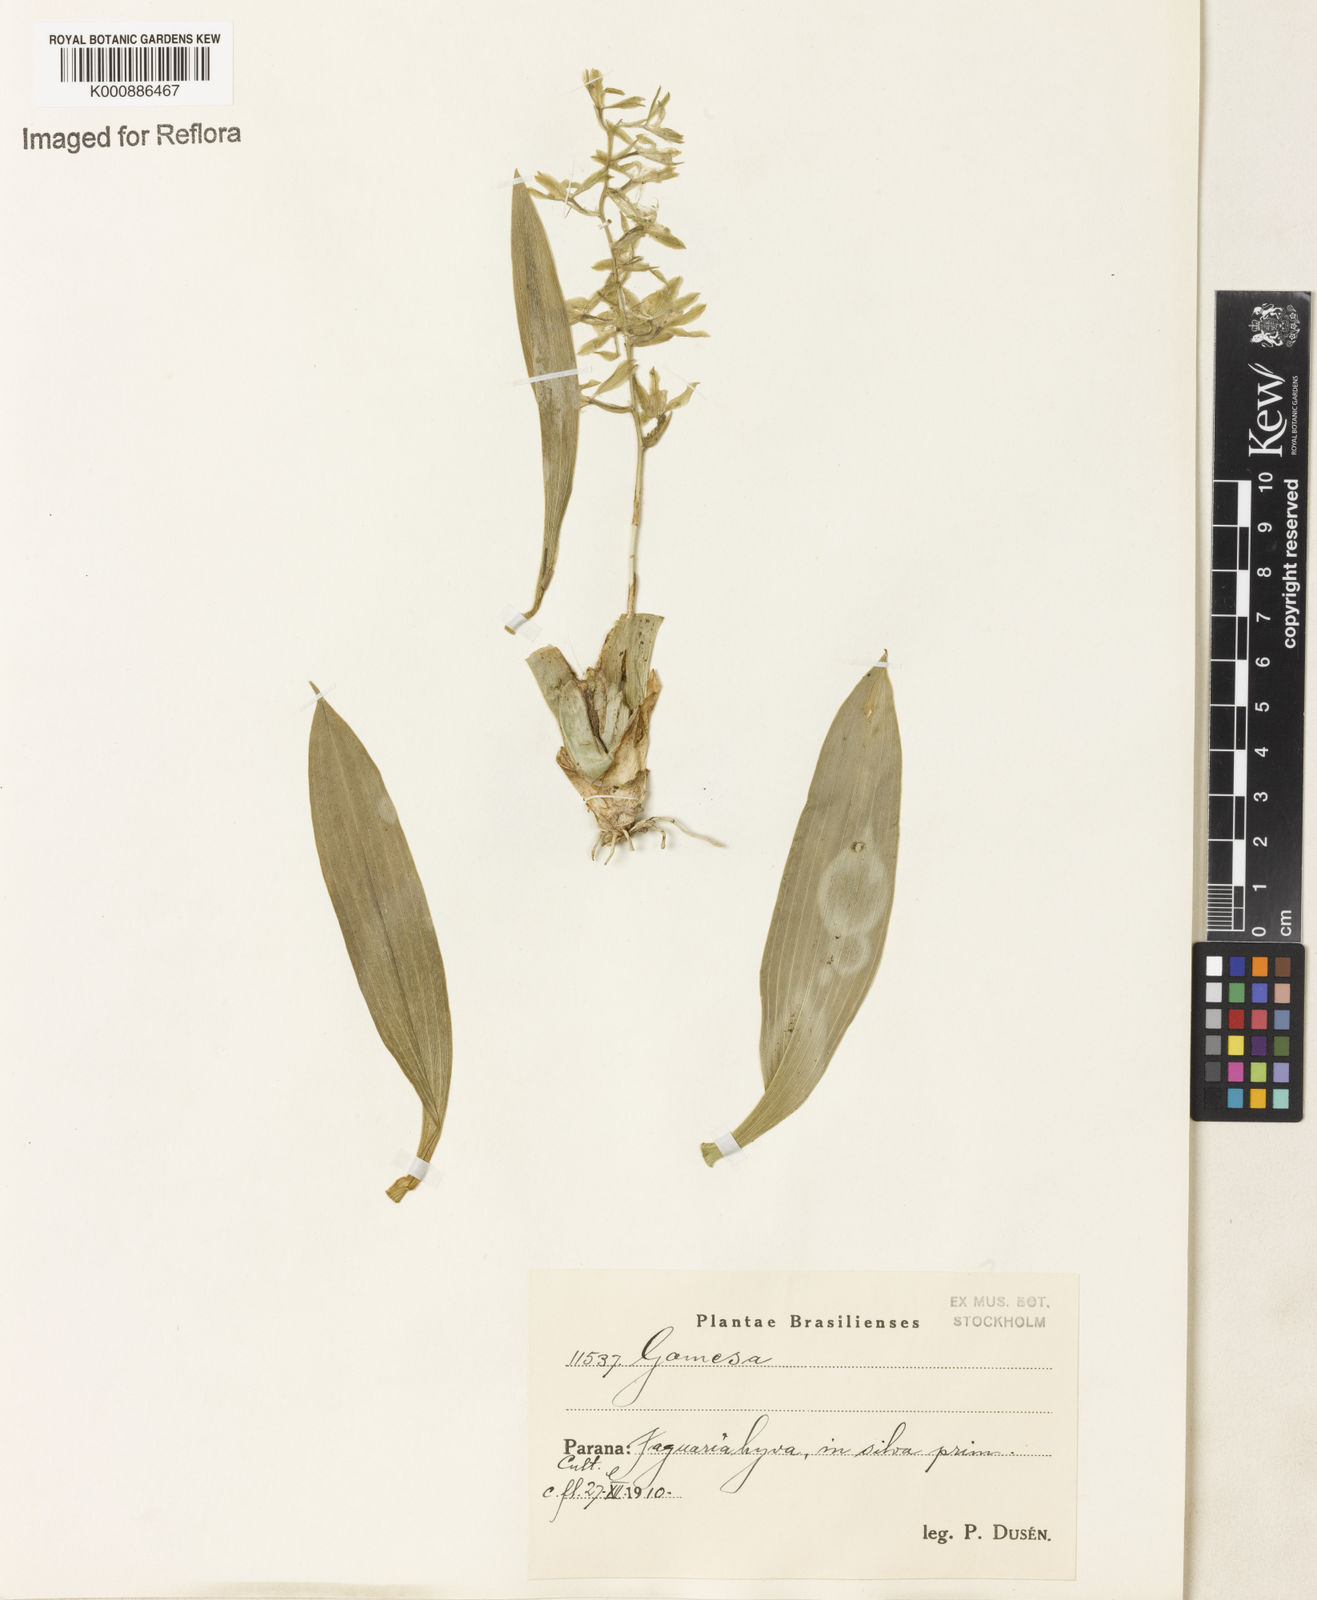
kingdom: Plantae
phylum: Tracheophyta
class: Liliopsida
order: Asparagales
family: Orchidaceae
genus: Gomesa
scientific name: Gomesa recurva
